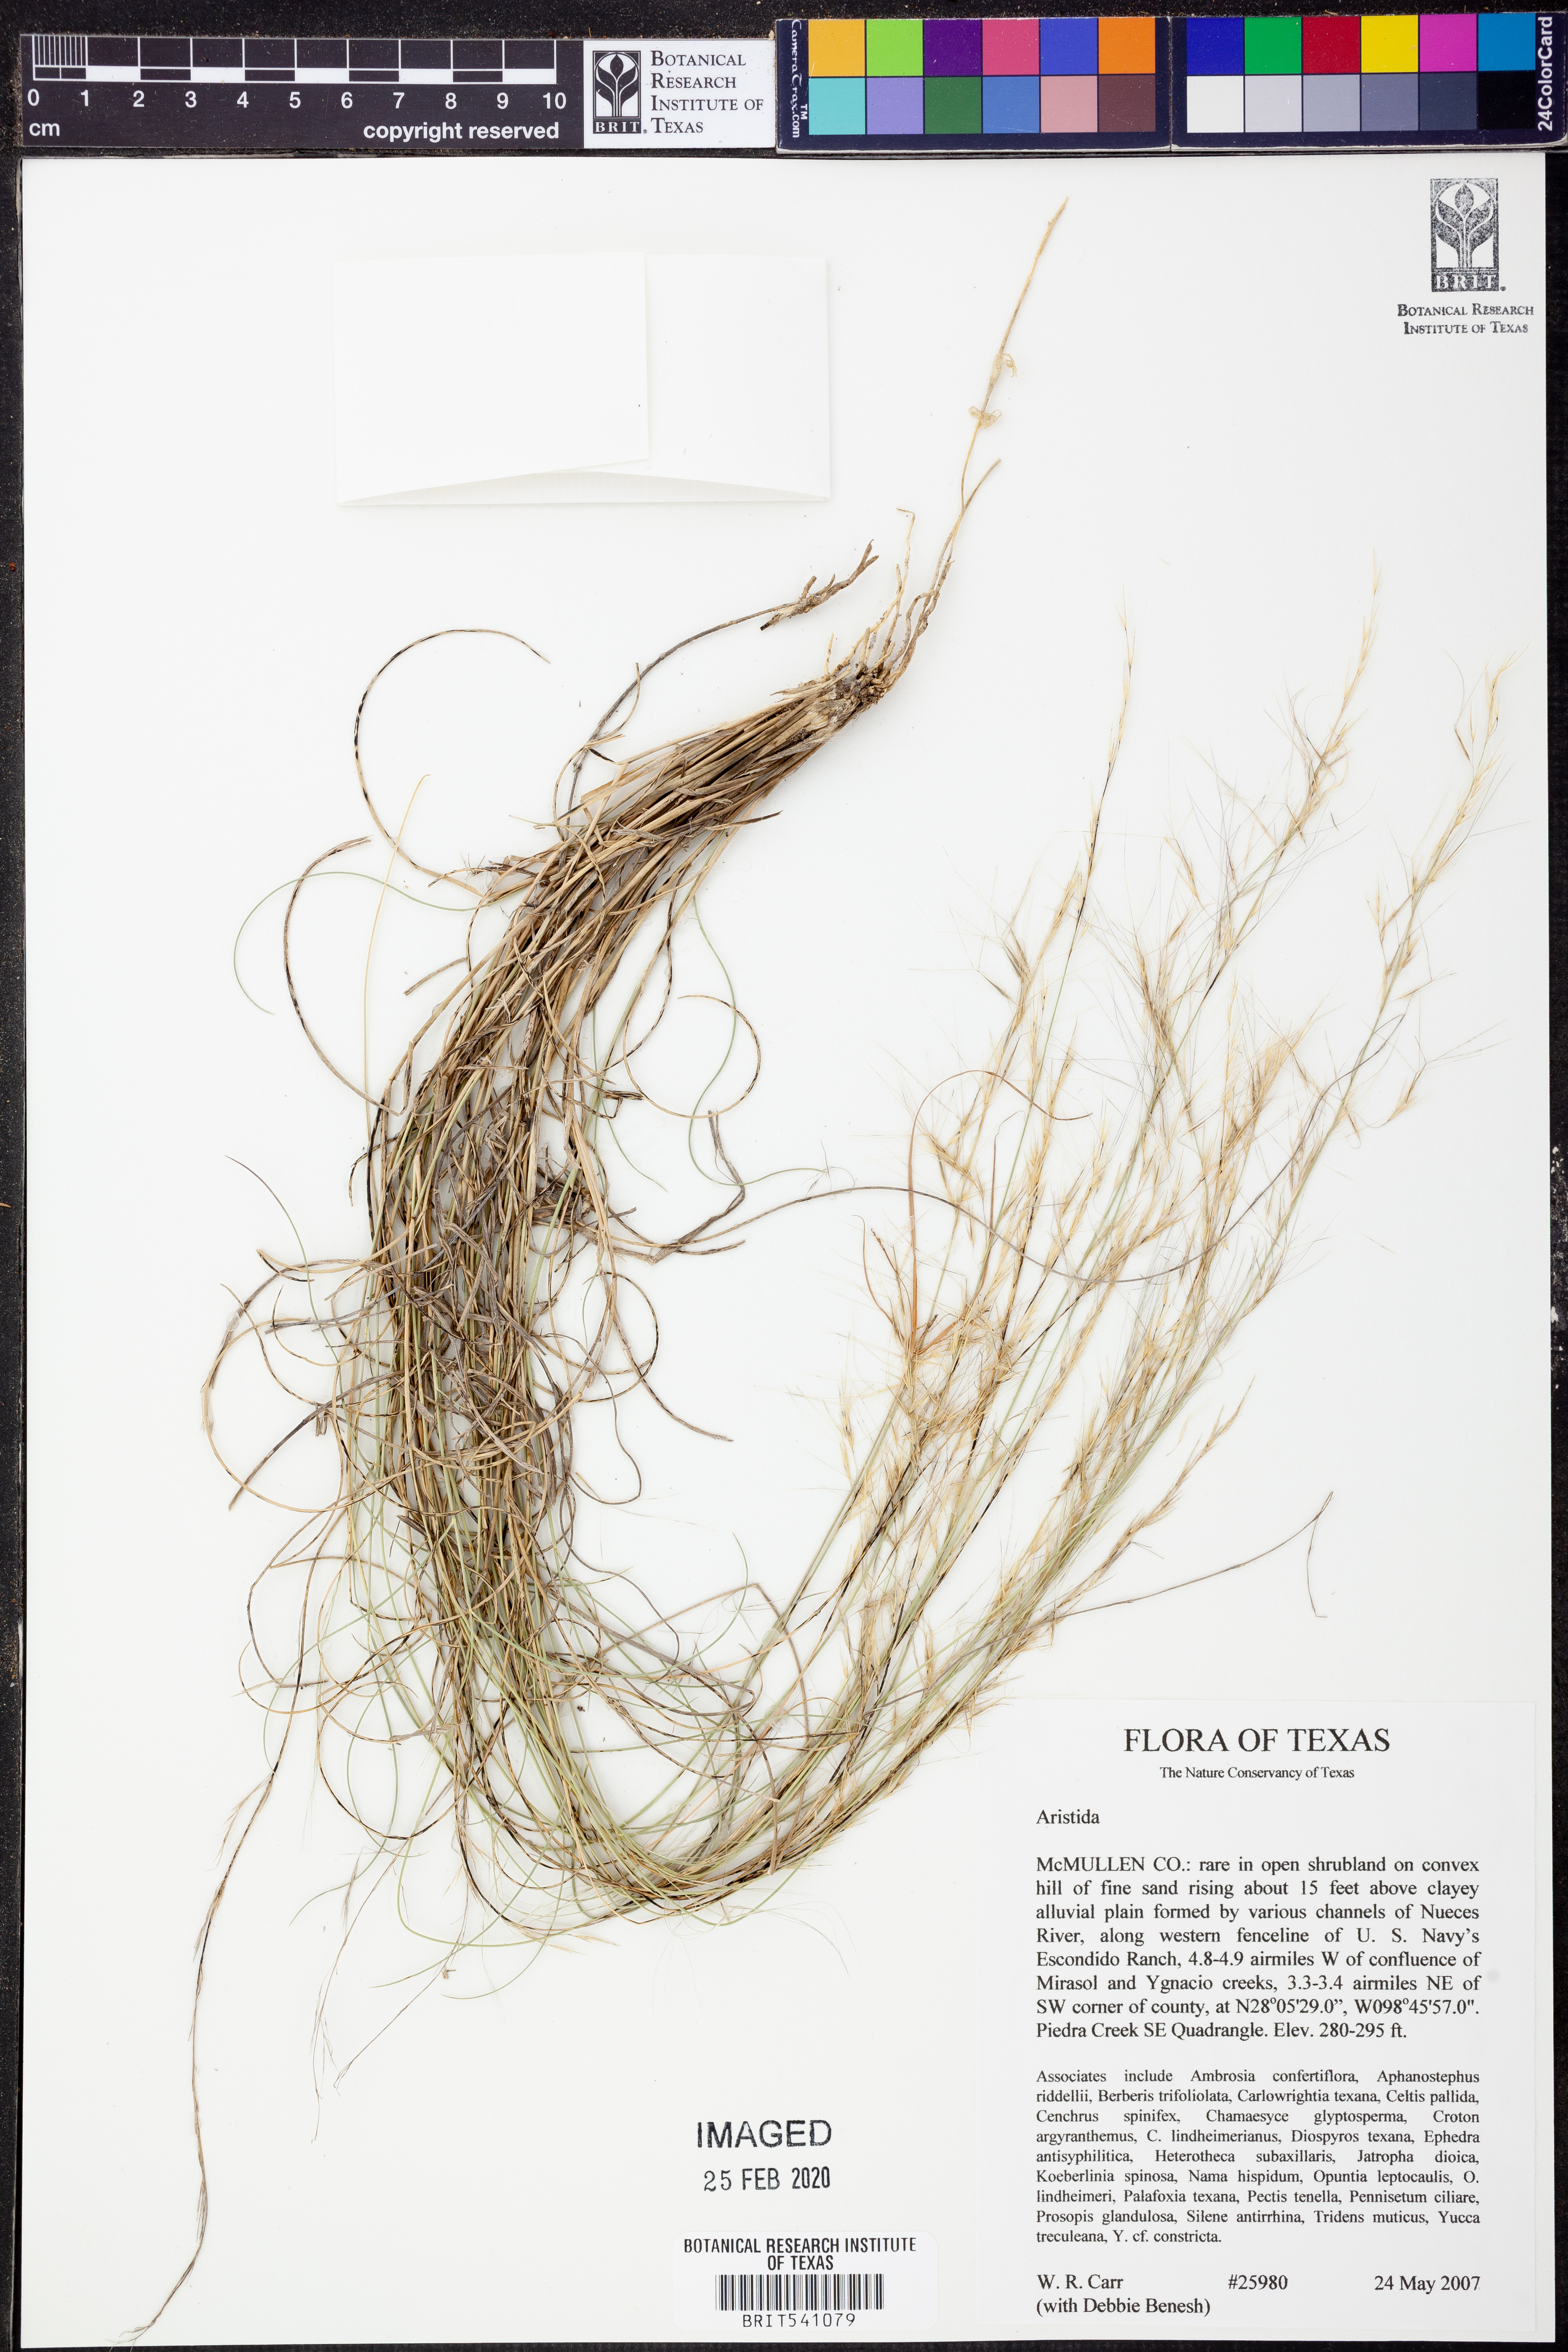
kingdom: Plantae
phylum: Tracheophyta
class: Liliopsida
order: Poales
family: Poaceae
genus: Aristida
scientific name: Aristida
